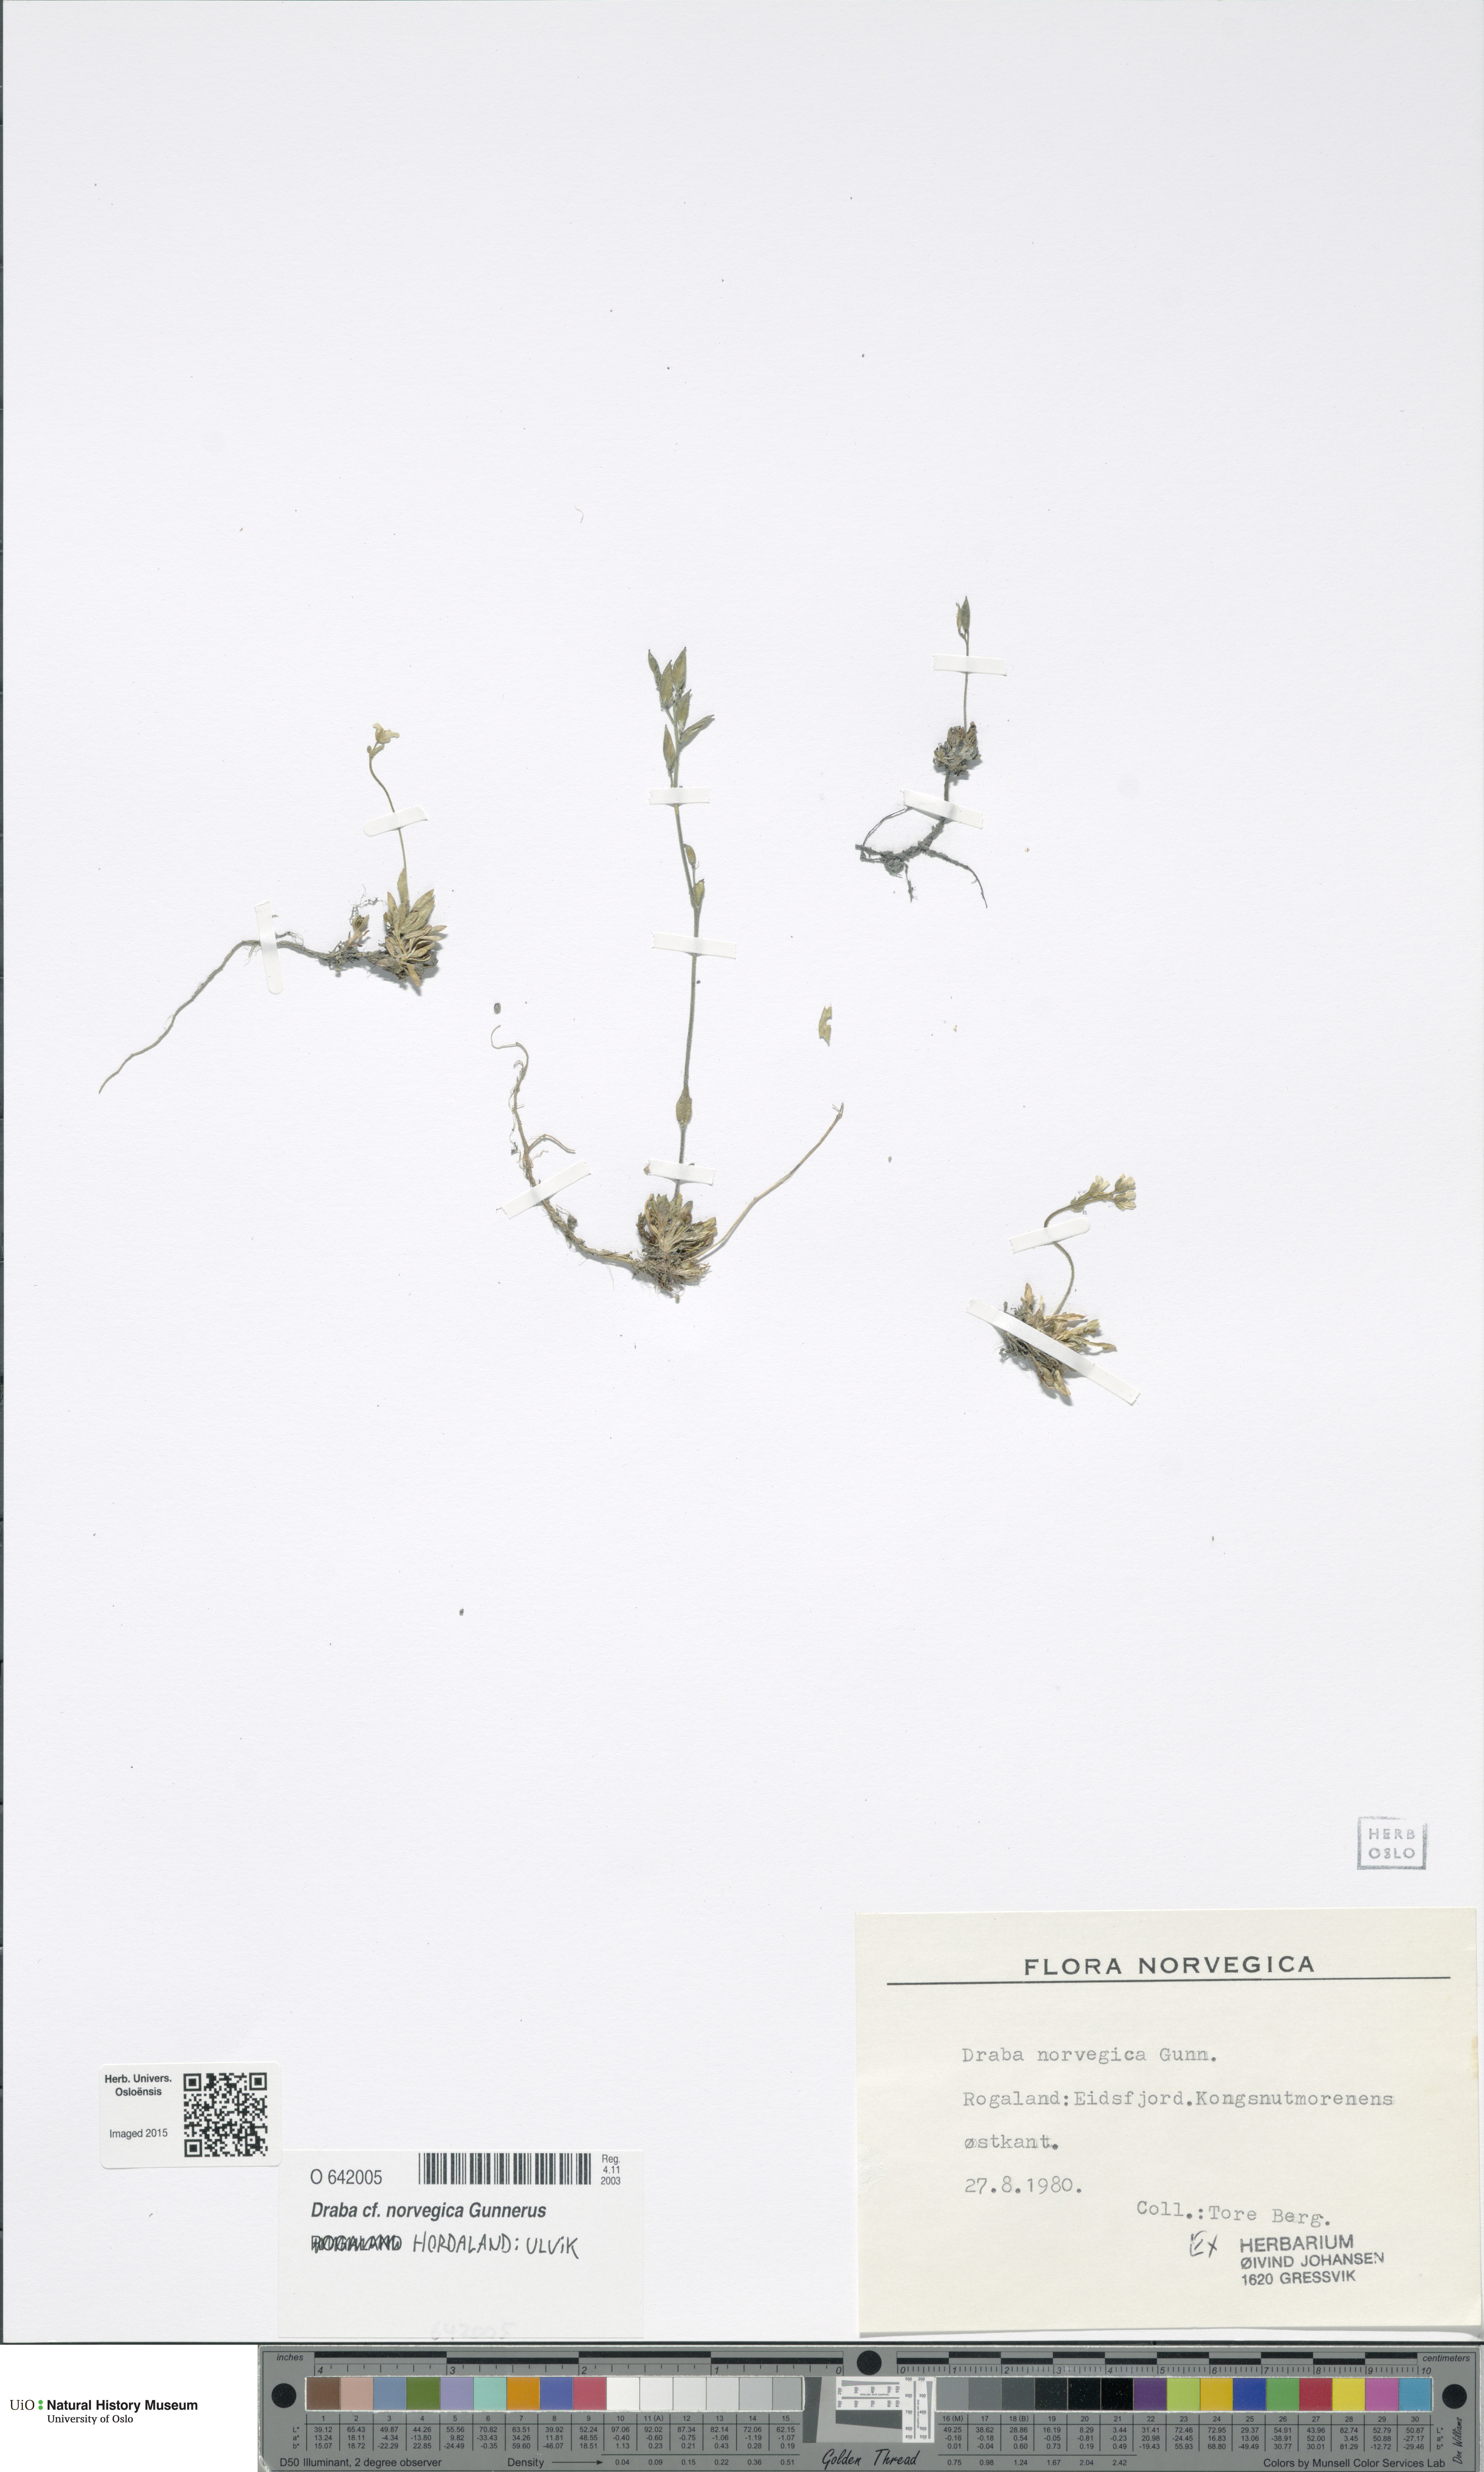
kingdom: Plantae
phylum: Tracheophyta
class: Magnoliopsida
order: Brassicales
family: Brassicaceae
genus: Draba
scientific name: Draba norvegica
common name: Rock whitlowgrass
